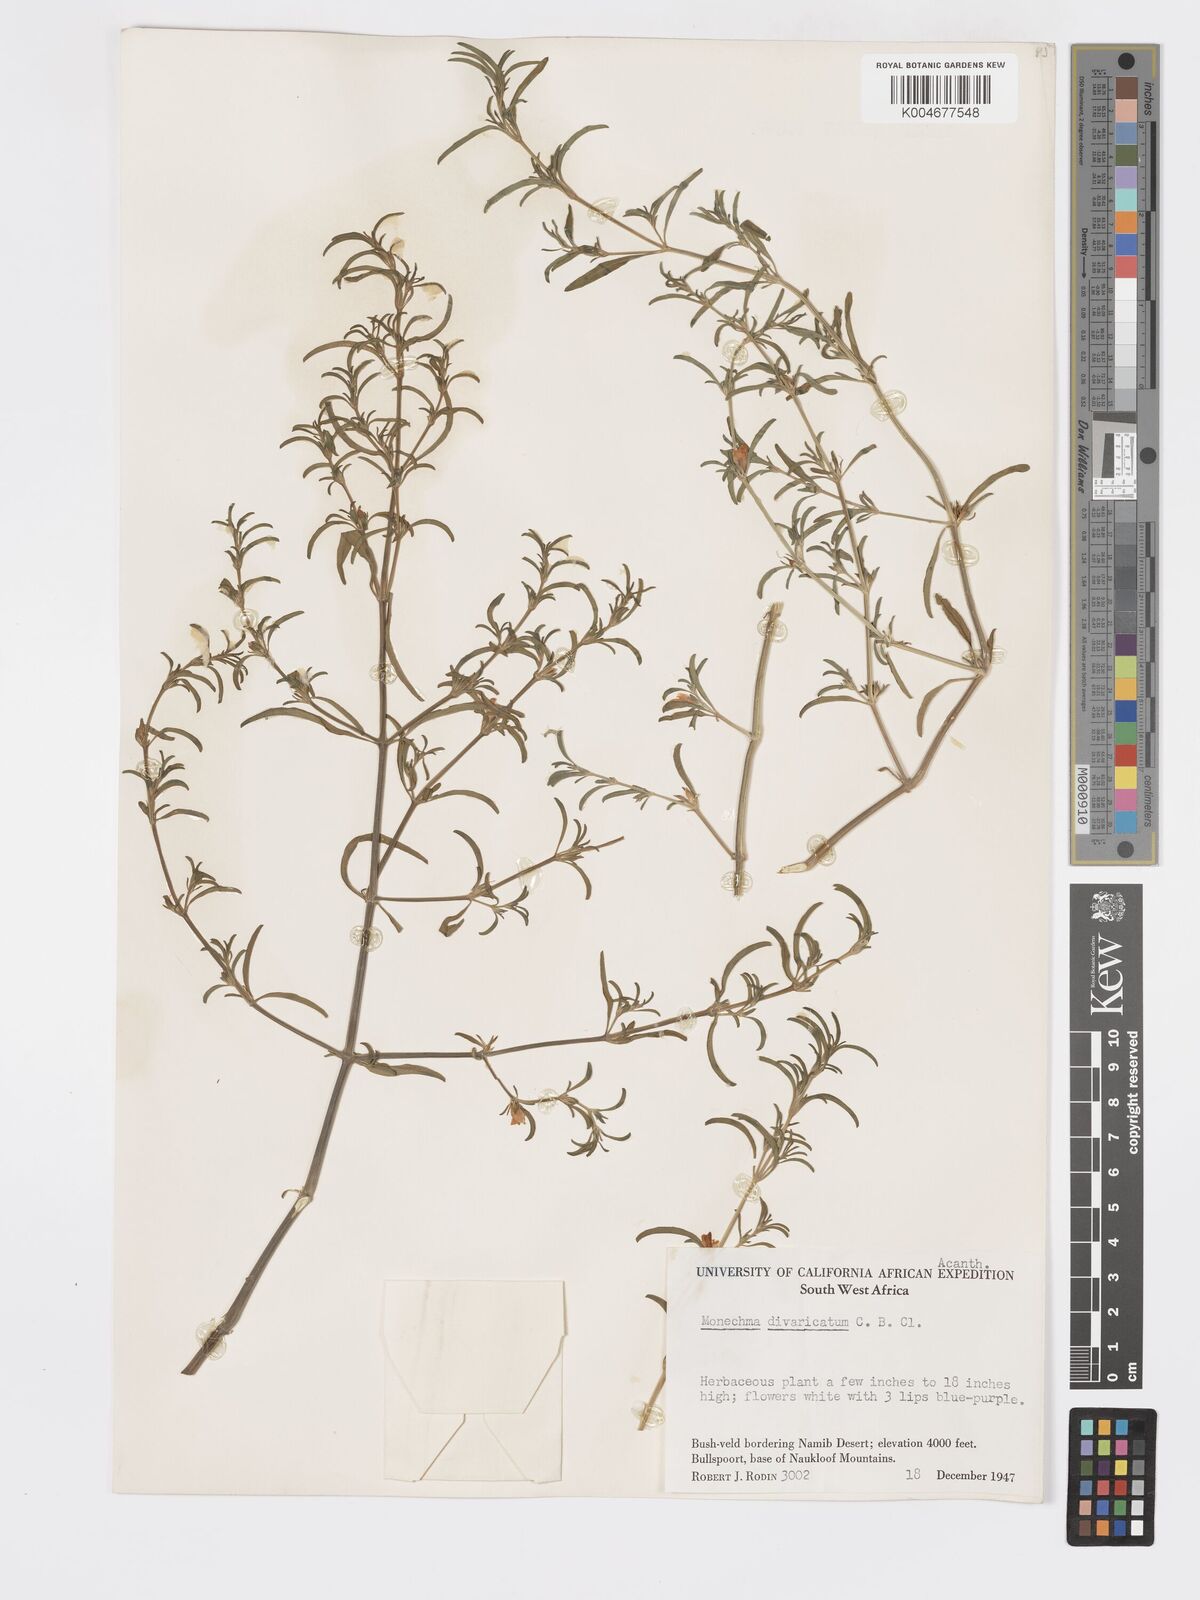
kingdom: Plantae
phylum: Tracheophyta
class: Magnoliopsida
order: Lamiales
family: Acanthaceae
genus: Pogonospermum
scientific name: Pogonospermum
